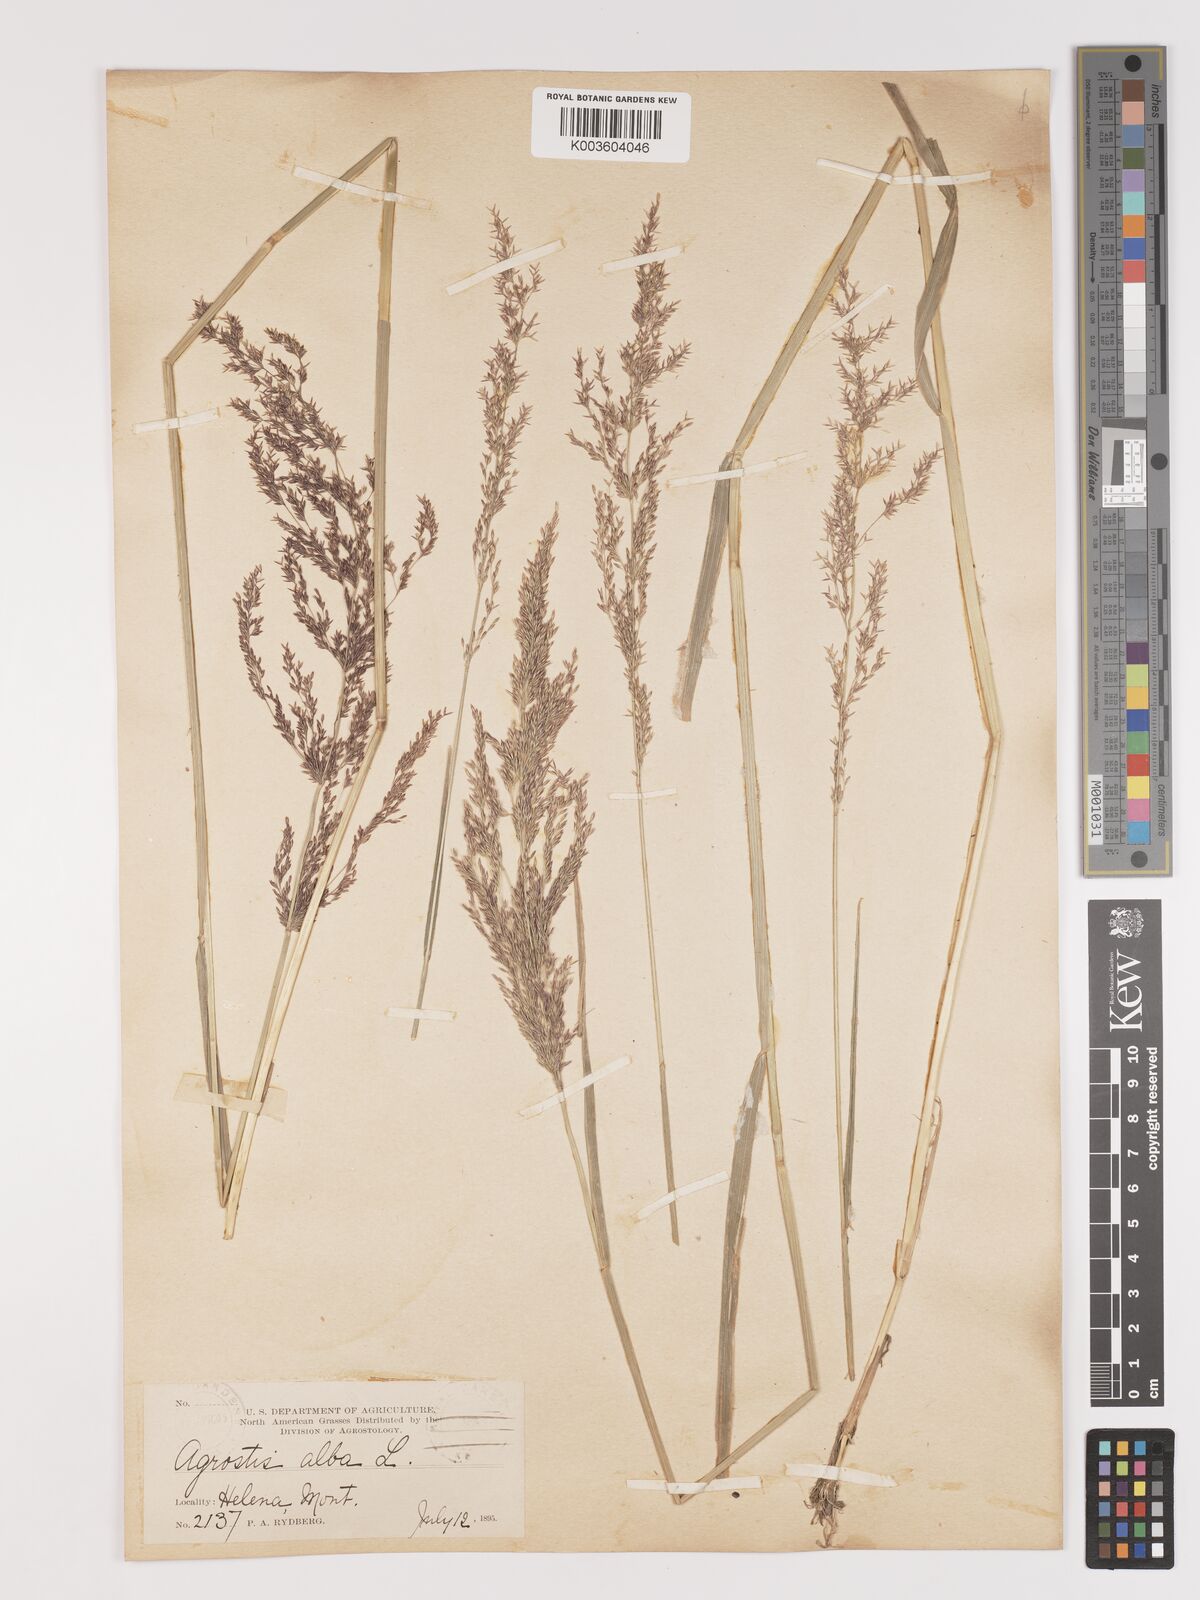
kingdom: Plantae
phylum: Tracheophyta
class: Liliopsida
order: Poales
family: Poaceae
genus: Agrostis
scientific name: Agrostis gigantea
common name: Black bent
